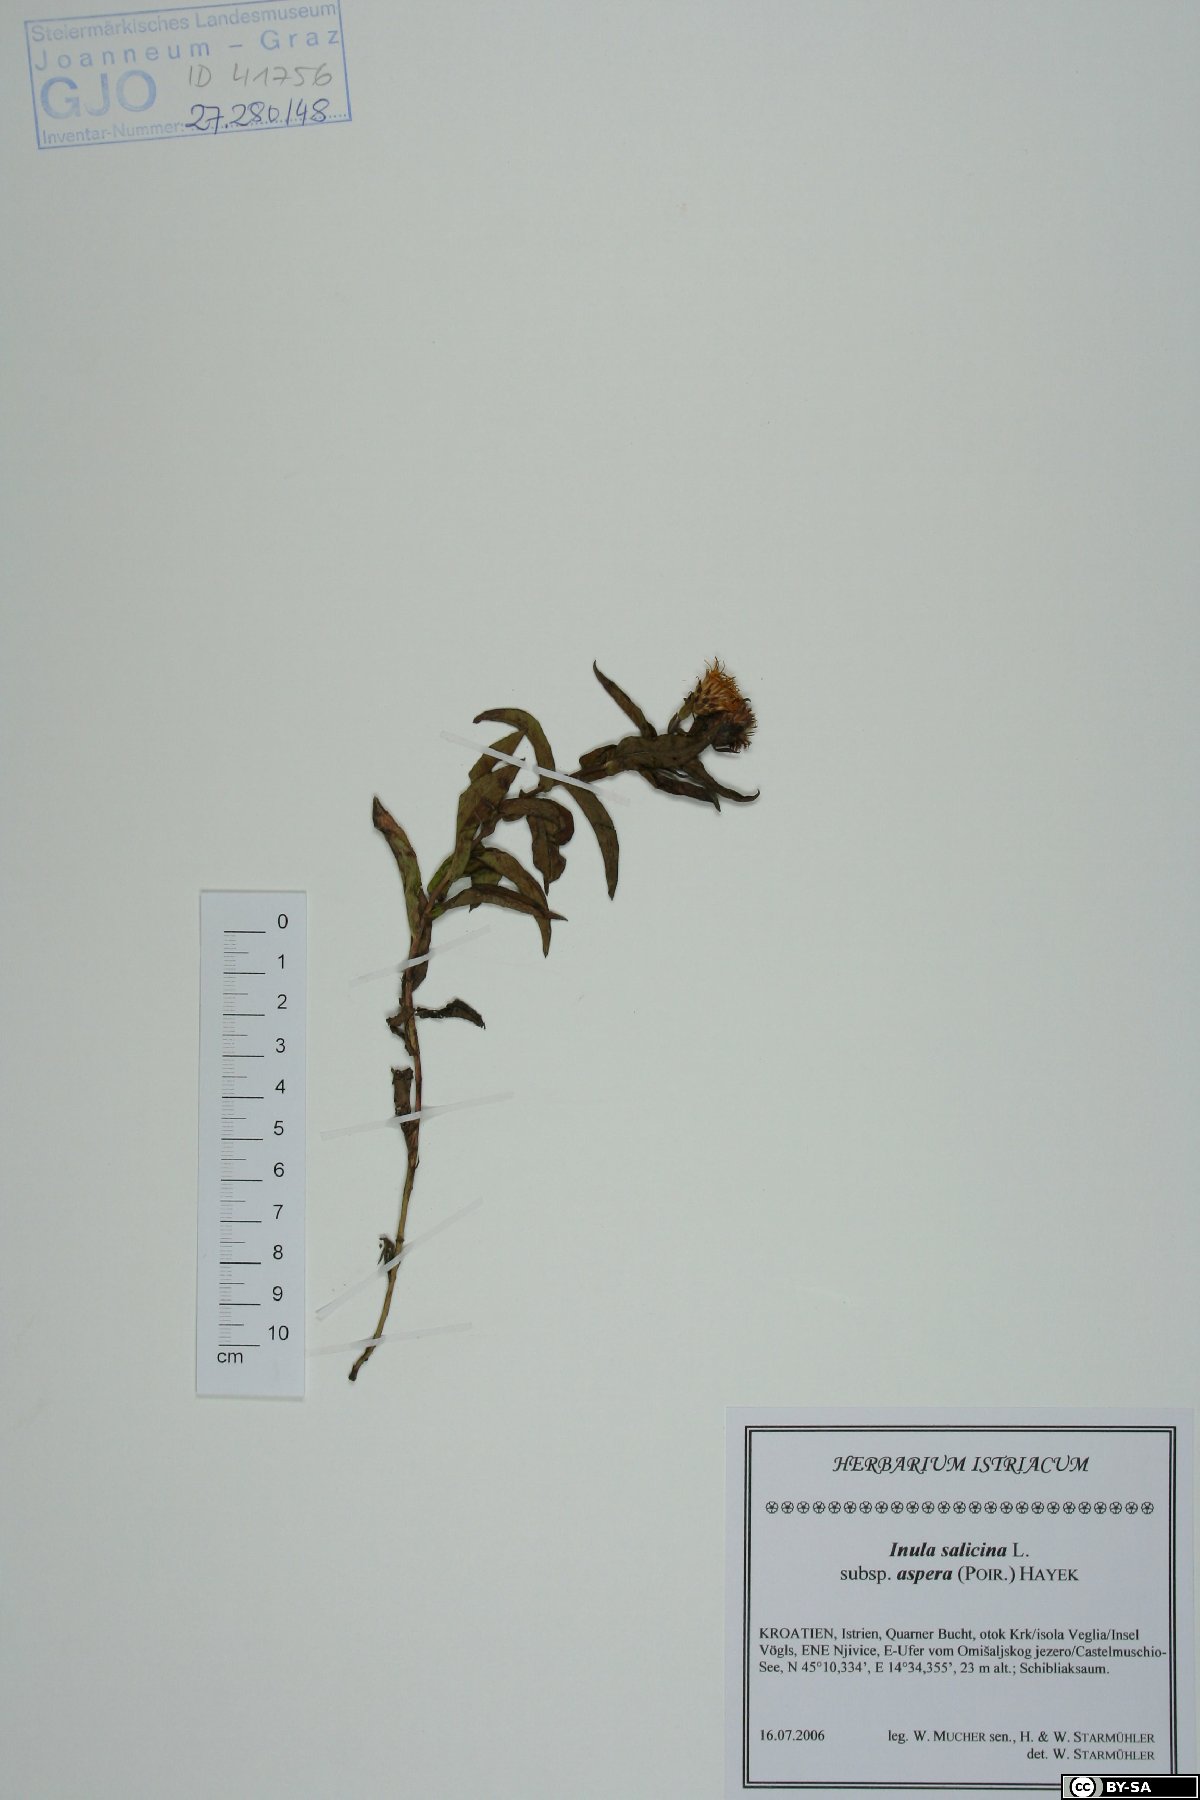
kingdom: Plantae
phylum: Tracheophyta
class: Magnoliopsida
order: Asterales
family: Asteraceae
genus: Pentanema
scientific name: Pentanema asperum
